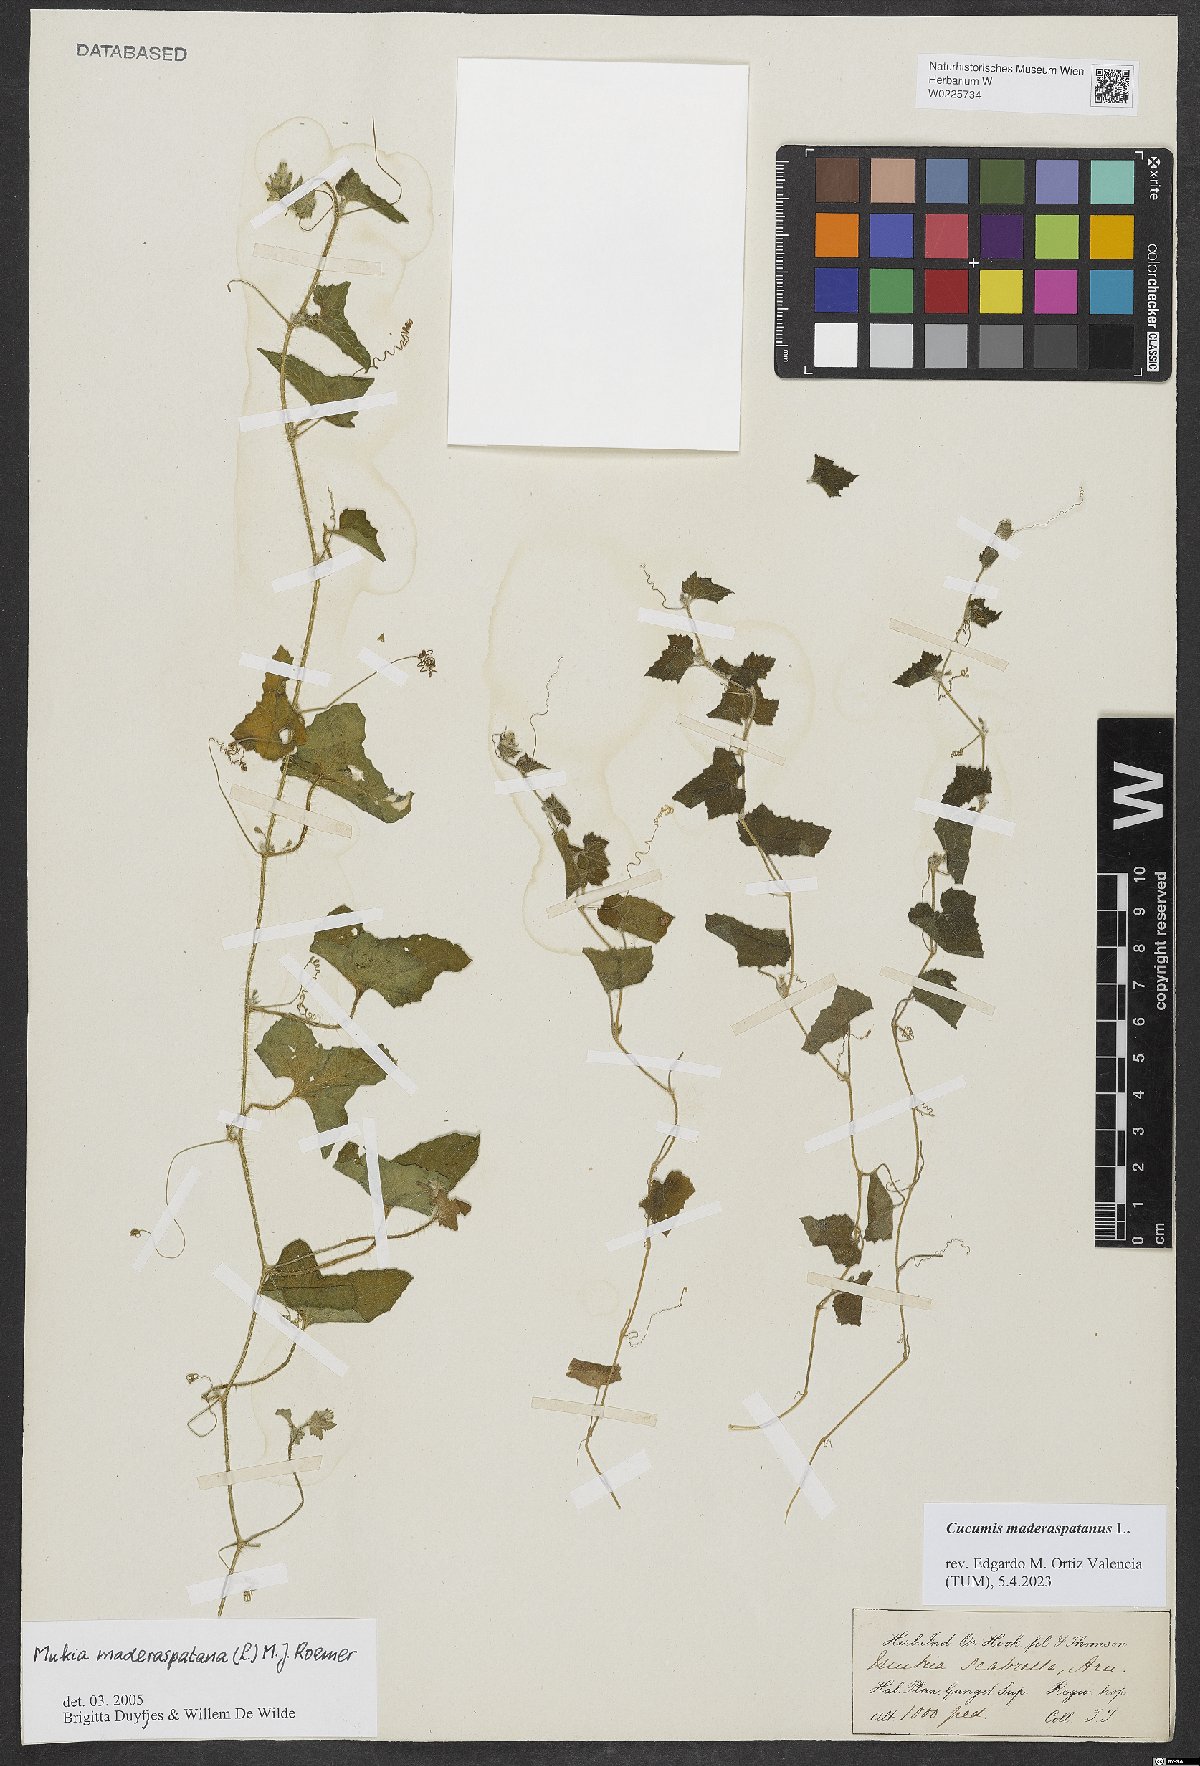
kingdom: Plantae
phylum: Tracheophyta
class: Magnoliopsida
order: Cucurbitales
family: Cucurbitaceae
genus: Cucumis
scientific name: Cucumis maderaspatanus
